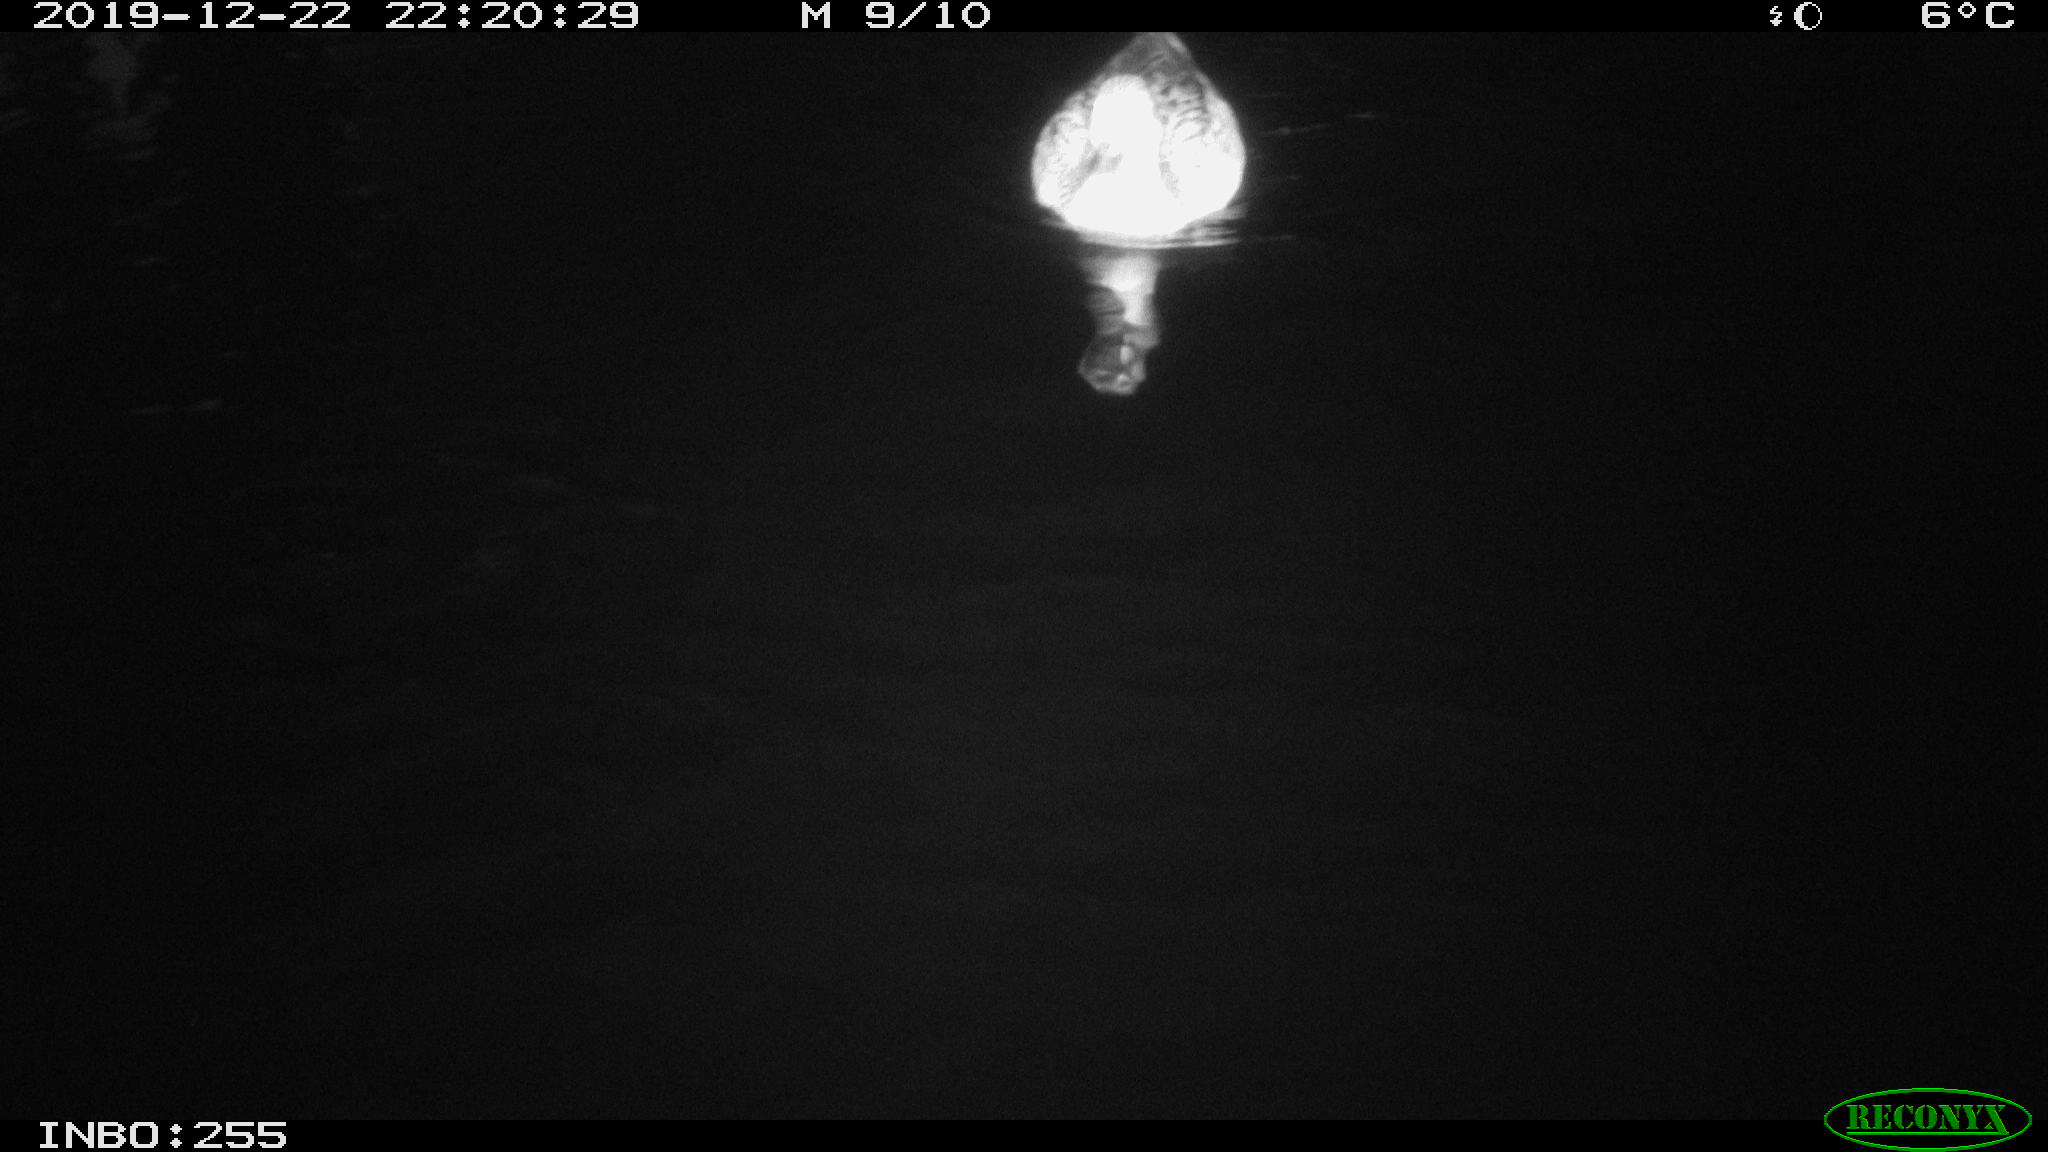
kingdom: Animalia
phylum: Chordata
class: Aves
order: Anseriformes
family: Anatidae
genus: Anas
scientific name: Anas platyrhynchos
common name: Mallard
